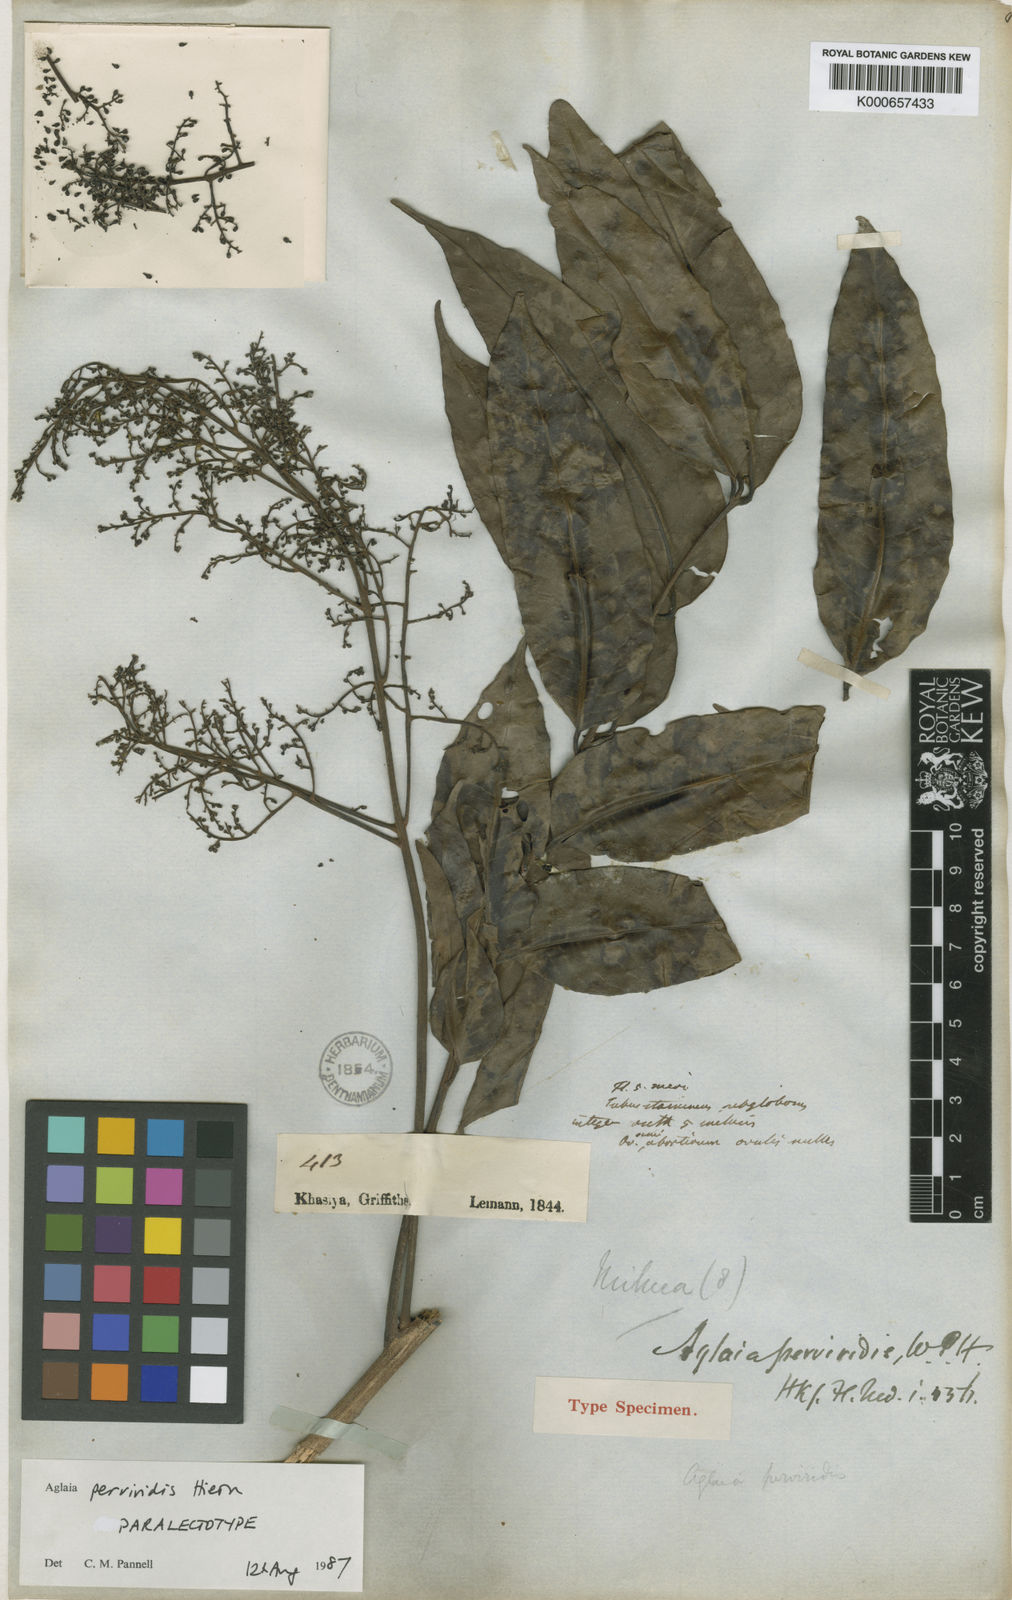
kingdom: Plantae
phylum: Tracheophyta
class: Magnoliopsida
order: Sapindales
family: Meliaceae
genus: Aglaia
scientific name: Aglaia perviridis
